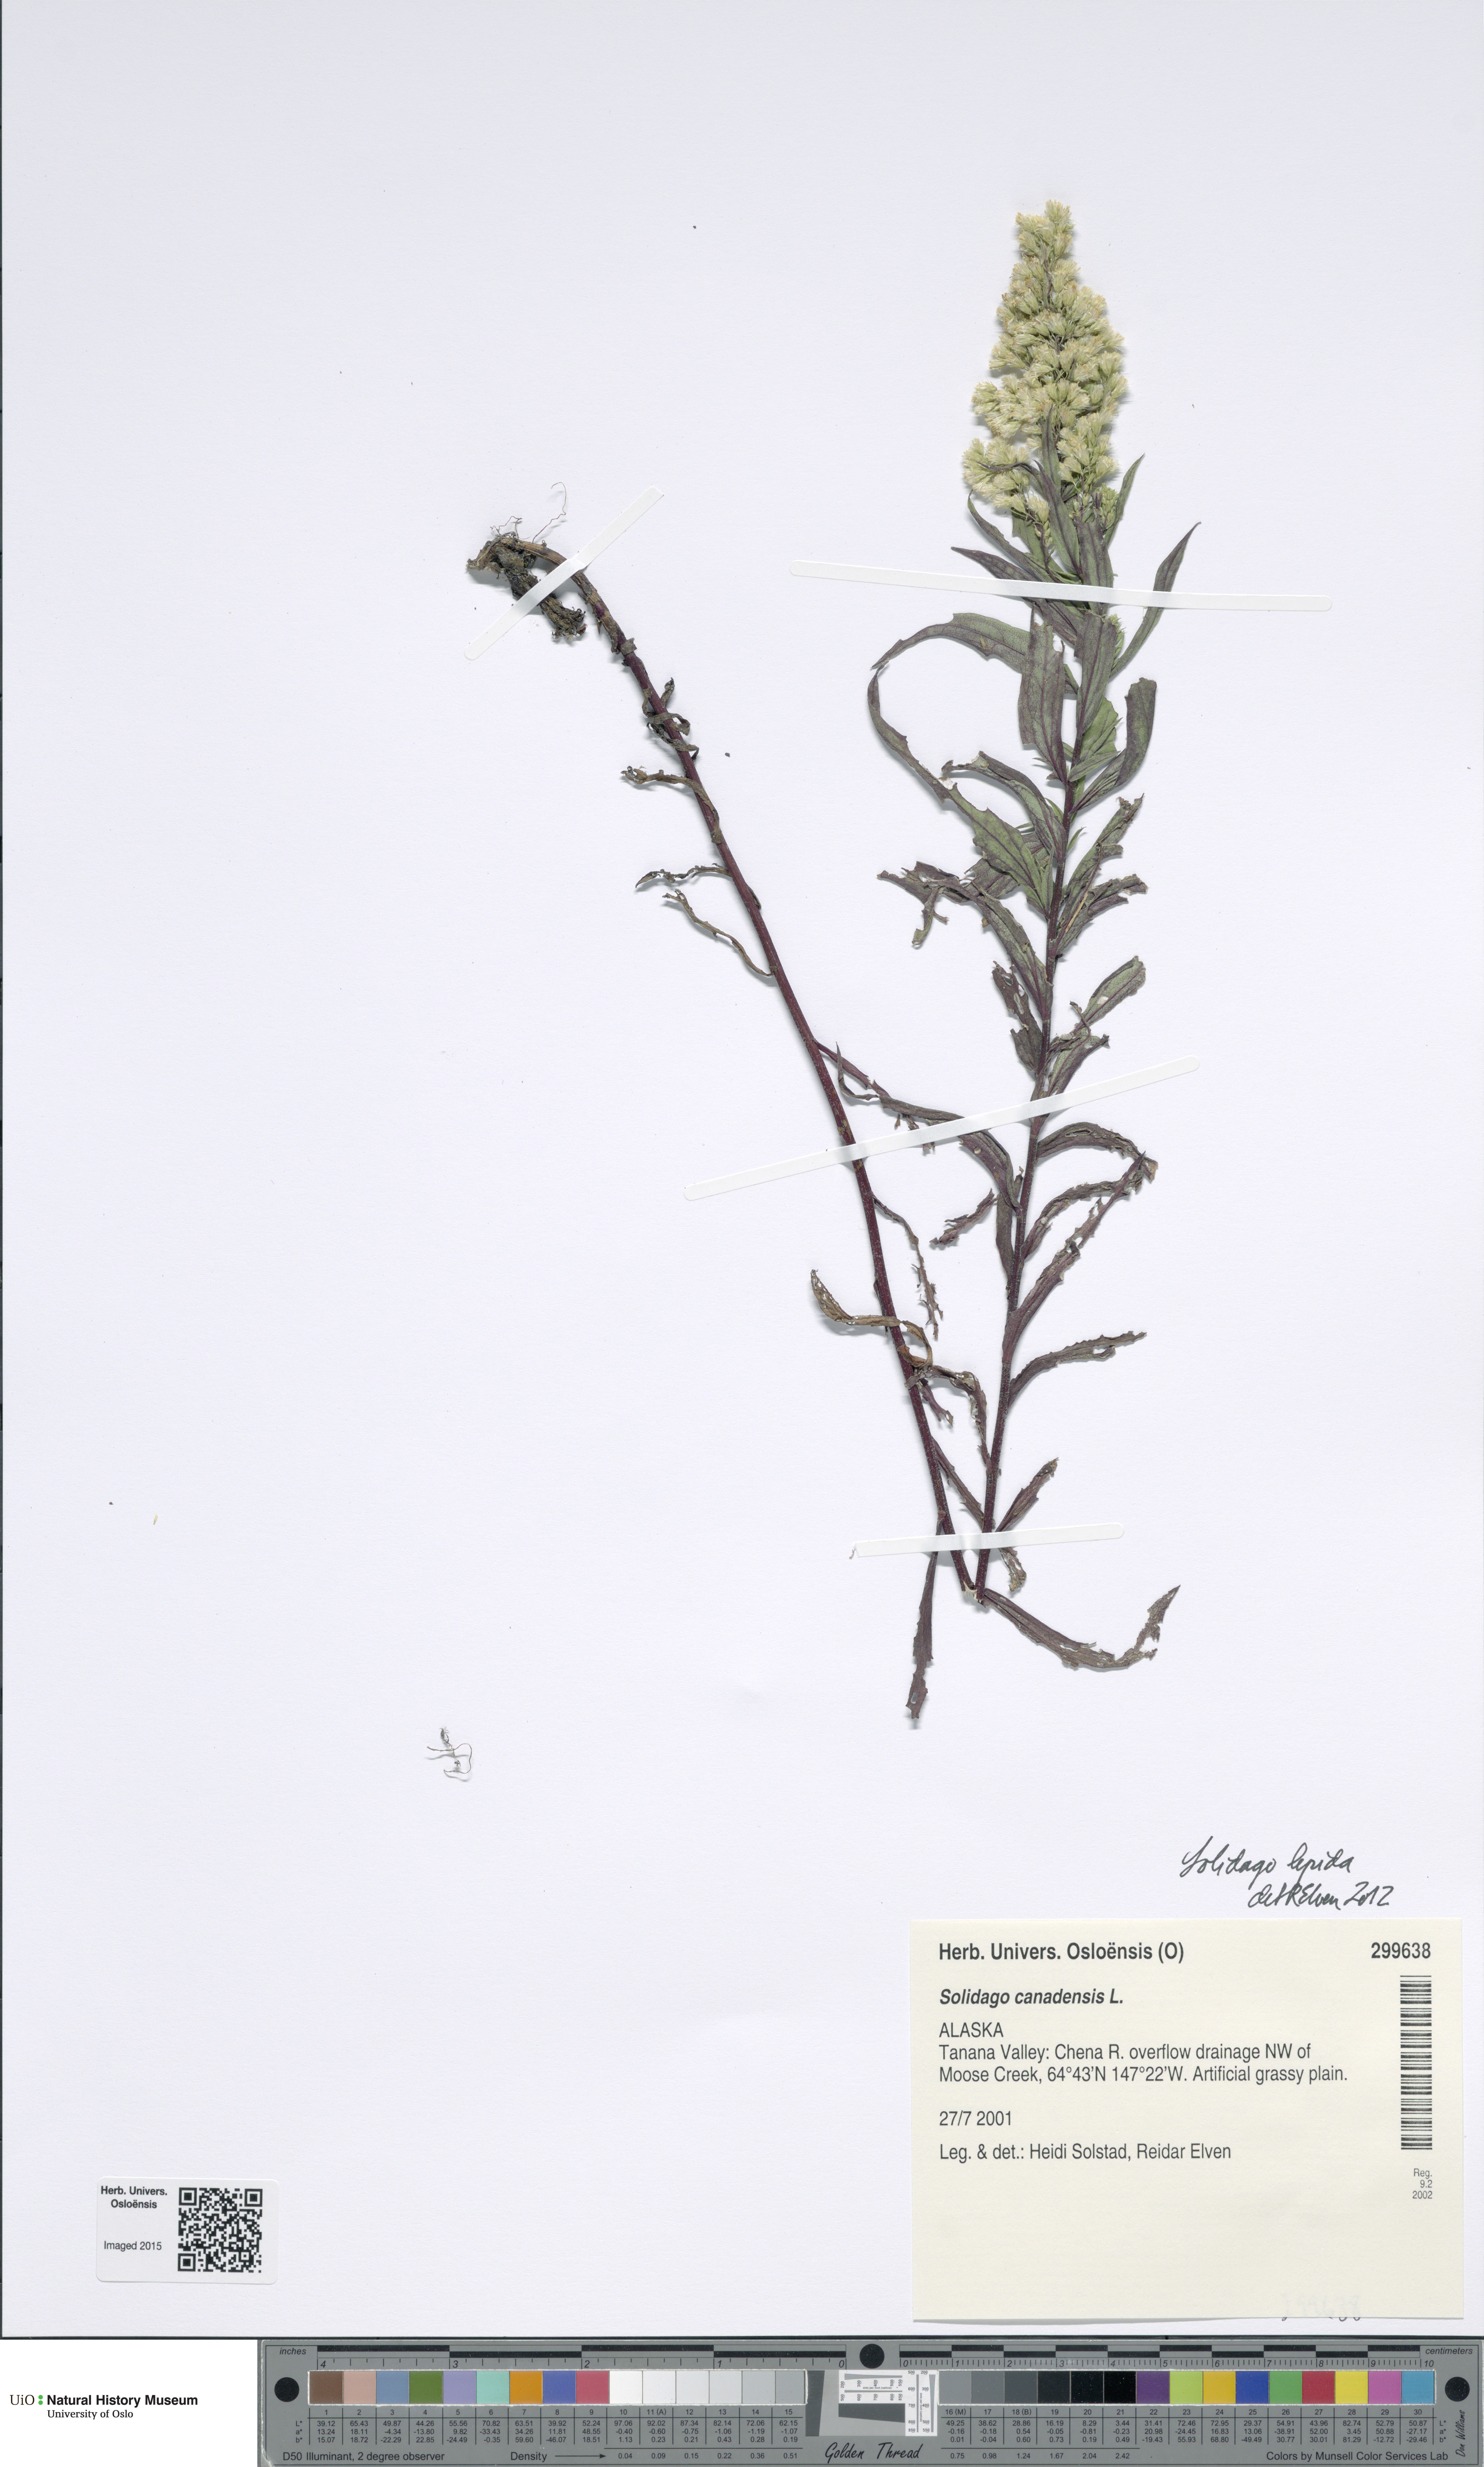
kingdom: Plantae
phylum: Tracheophyta
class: Magnoliopsida
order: Asterales
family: Asteraceae
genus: Solidago
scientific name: Solidago canadensis
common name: Canada goldenrod
